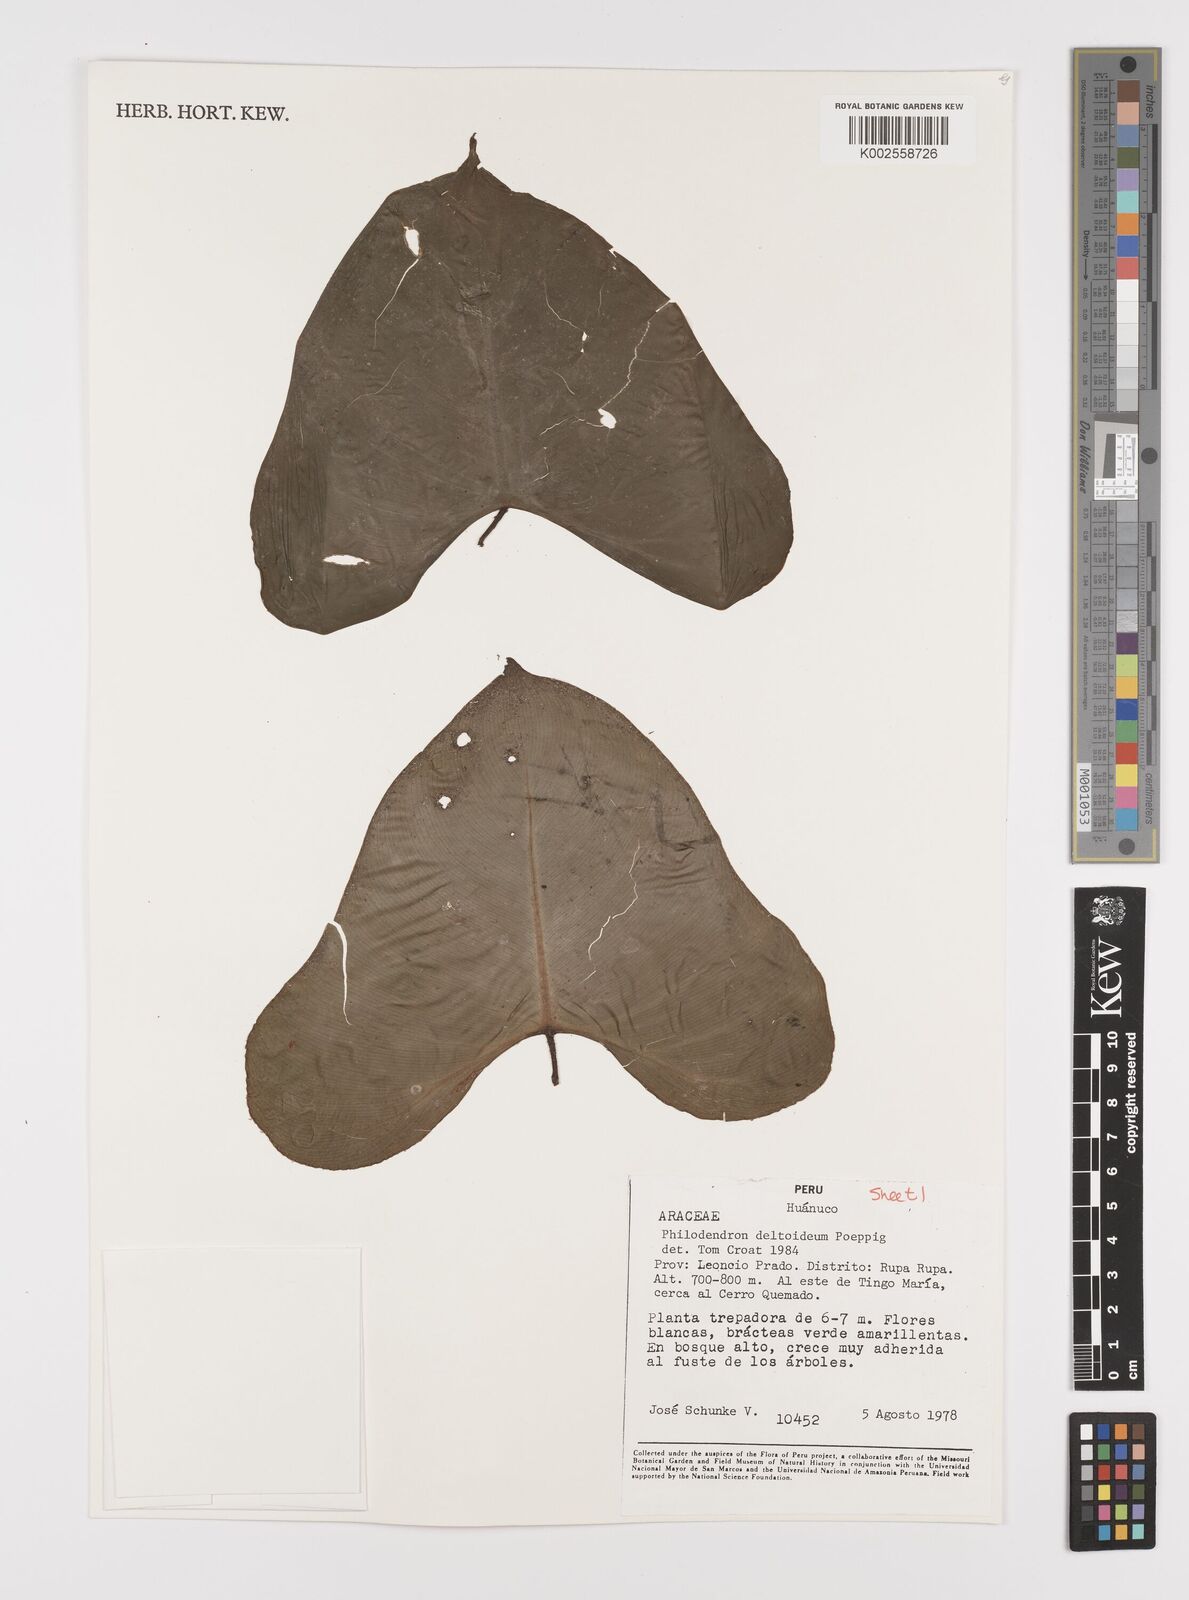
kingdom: Plantae
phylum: Tracheophyta
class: Liliopsida
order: Alismatales
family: Araceae
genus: Philodendron
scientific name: Philodendron deltoideum
